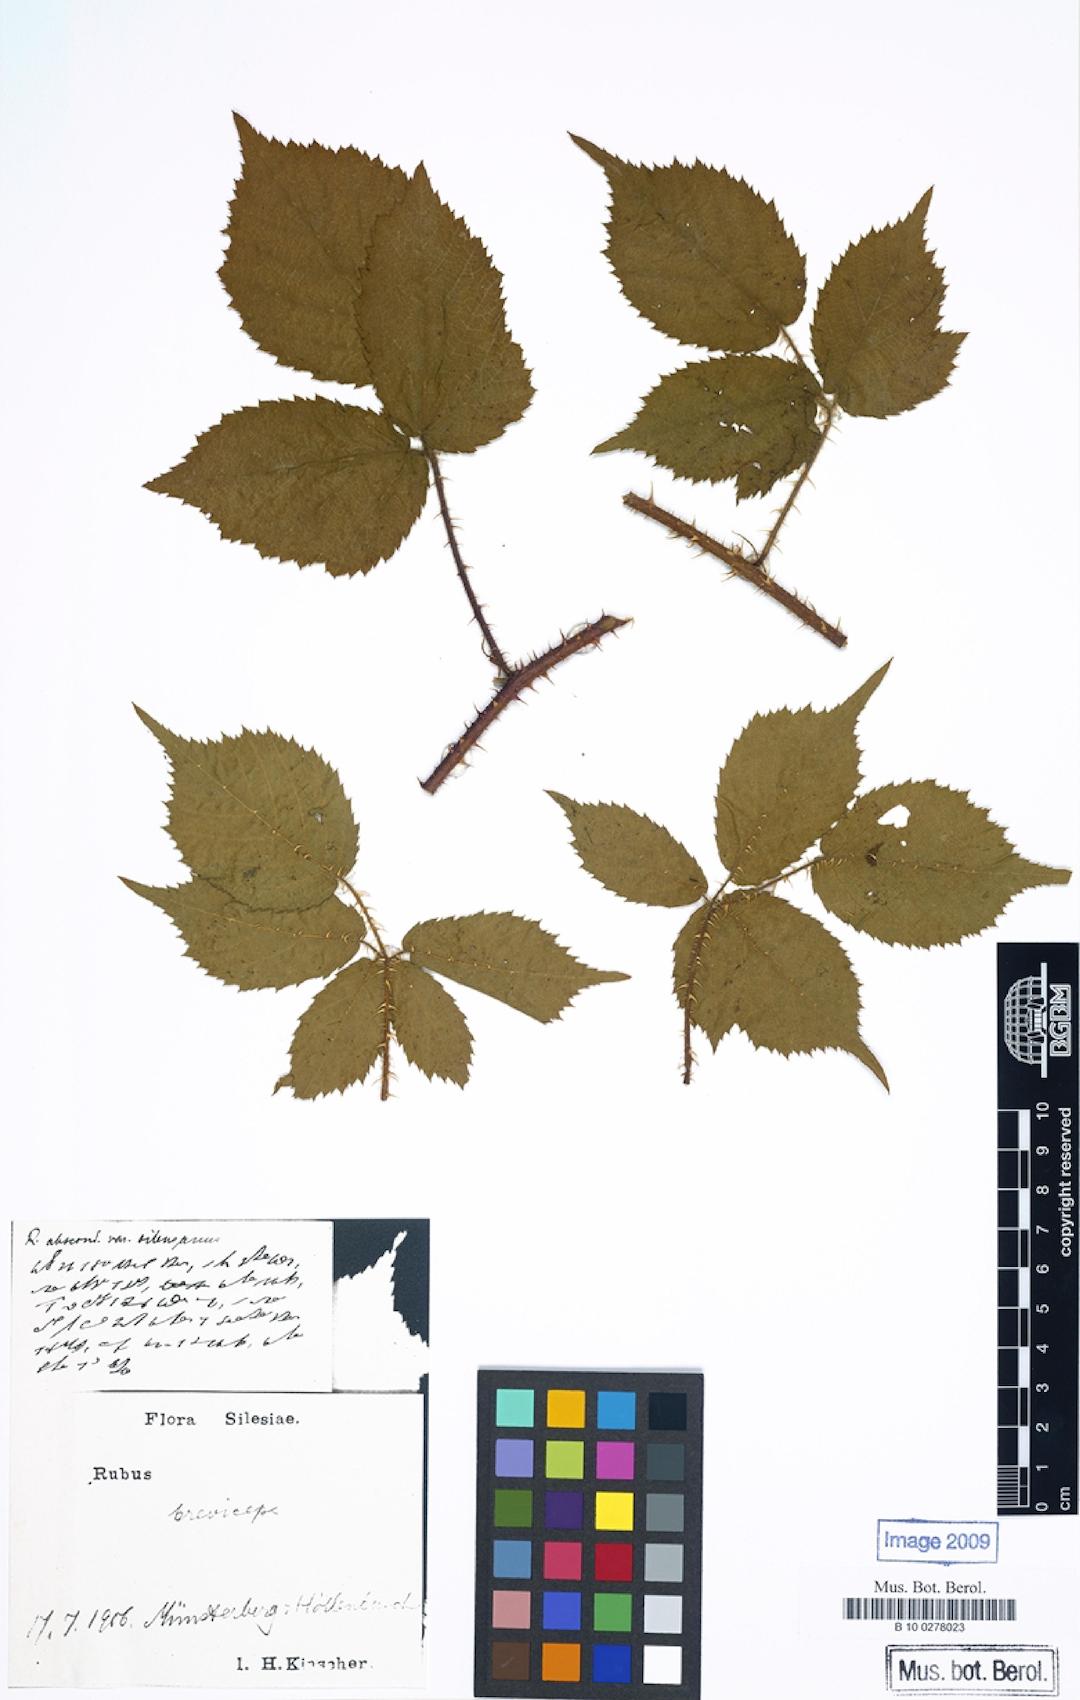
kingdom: Plantae
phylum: Tracheophyta
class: Magnoliopsida
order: Rosales
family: Rosaceae
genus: Rubus
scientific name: Rubus breviceps
